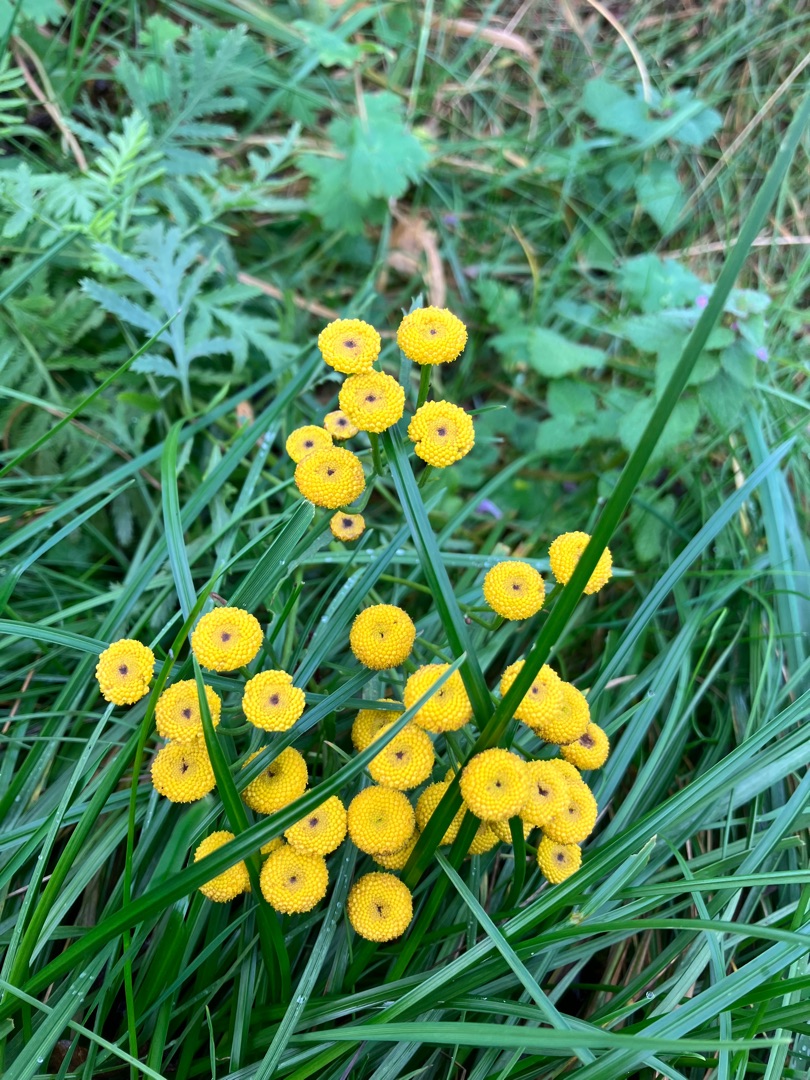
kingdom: Plantae
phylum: Tracheophyta
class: Magnoliopsida
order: Asterales
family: Asteraceae
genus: Tanacetum
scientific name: Tanacetum vulgare
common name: Rejnfan
